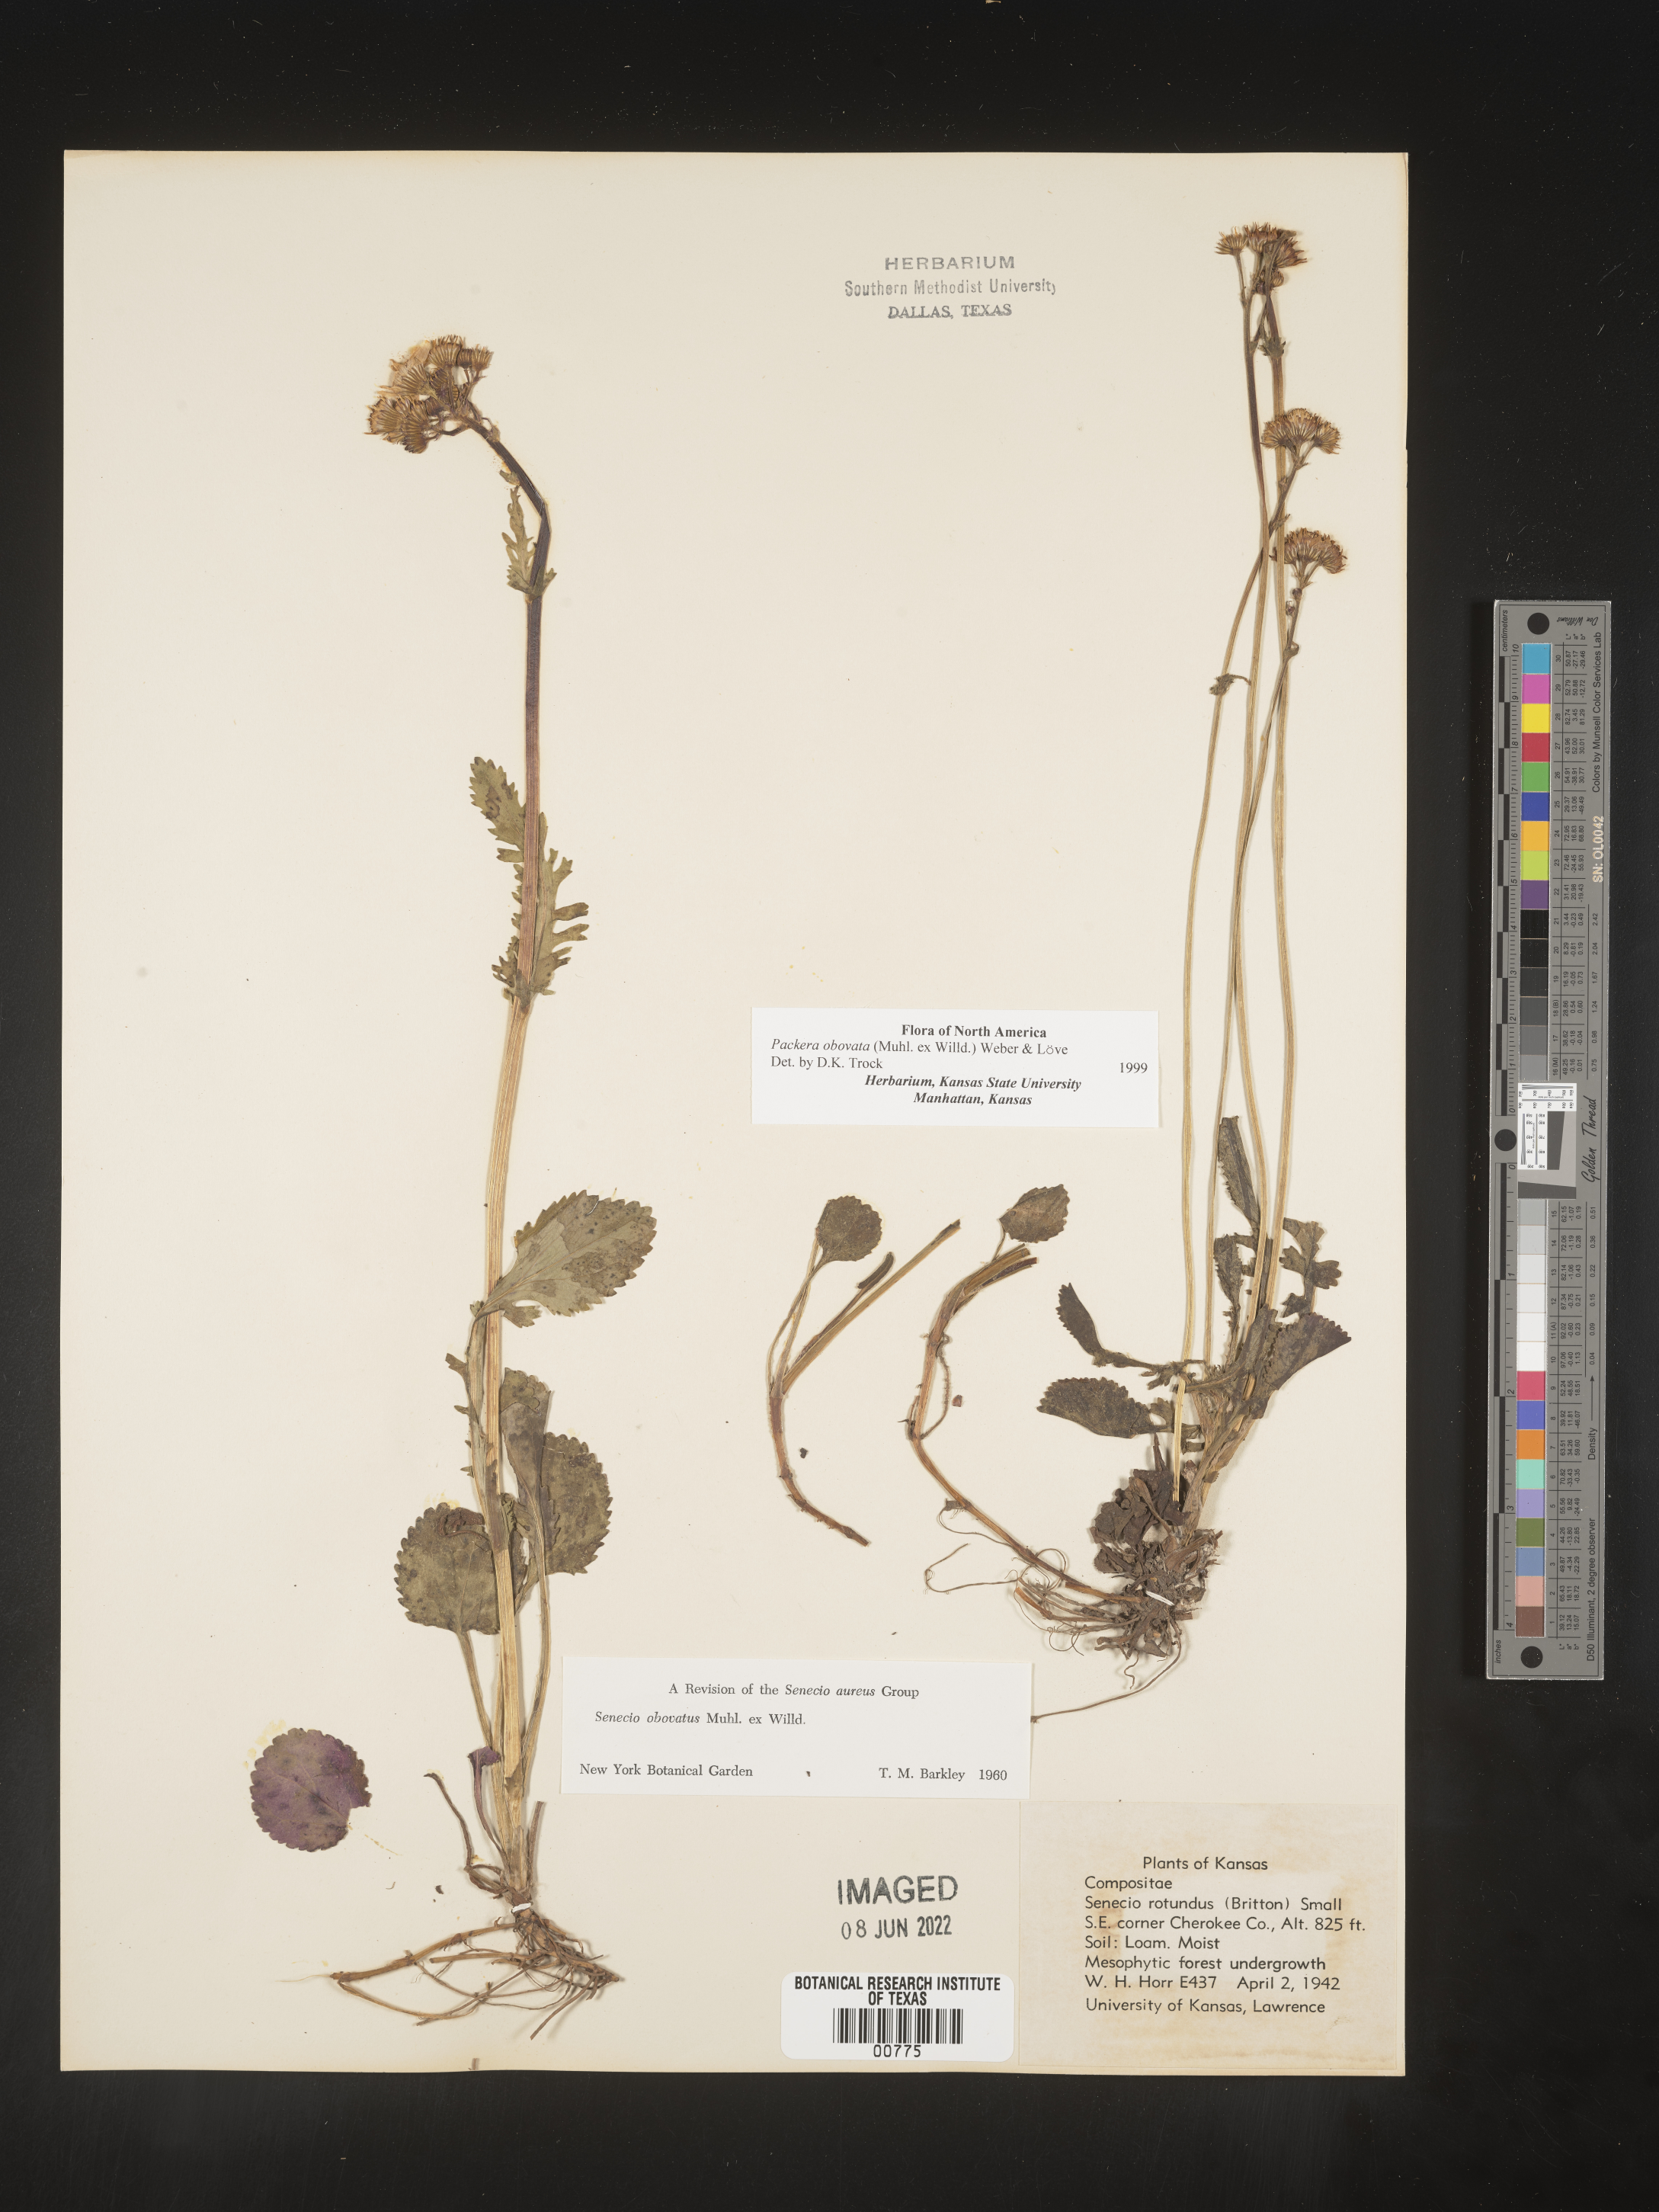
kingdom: Plantae
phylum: Tracheophyta
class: Magnoliopsida
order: Asterales
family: Asteraceae
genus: Packera
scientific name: Packera obovata
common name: Round-leaf ragwort
